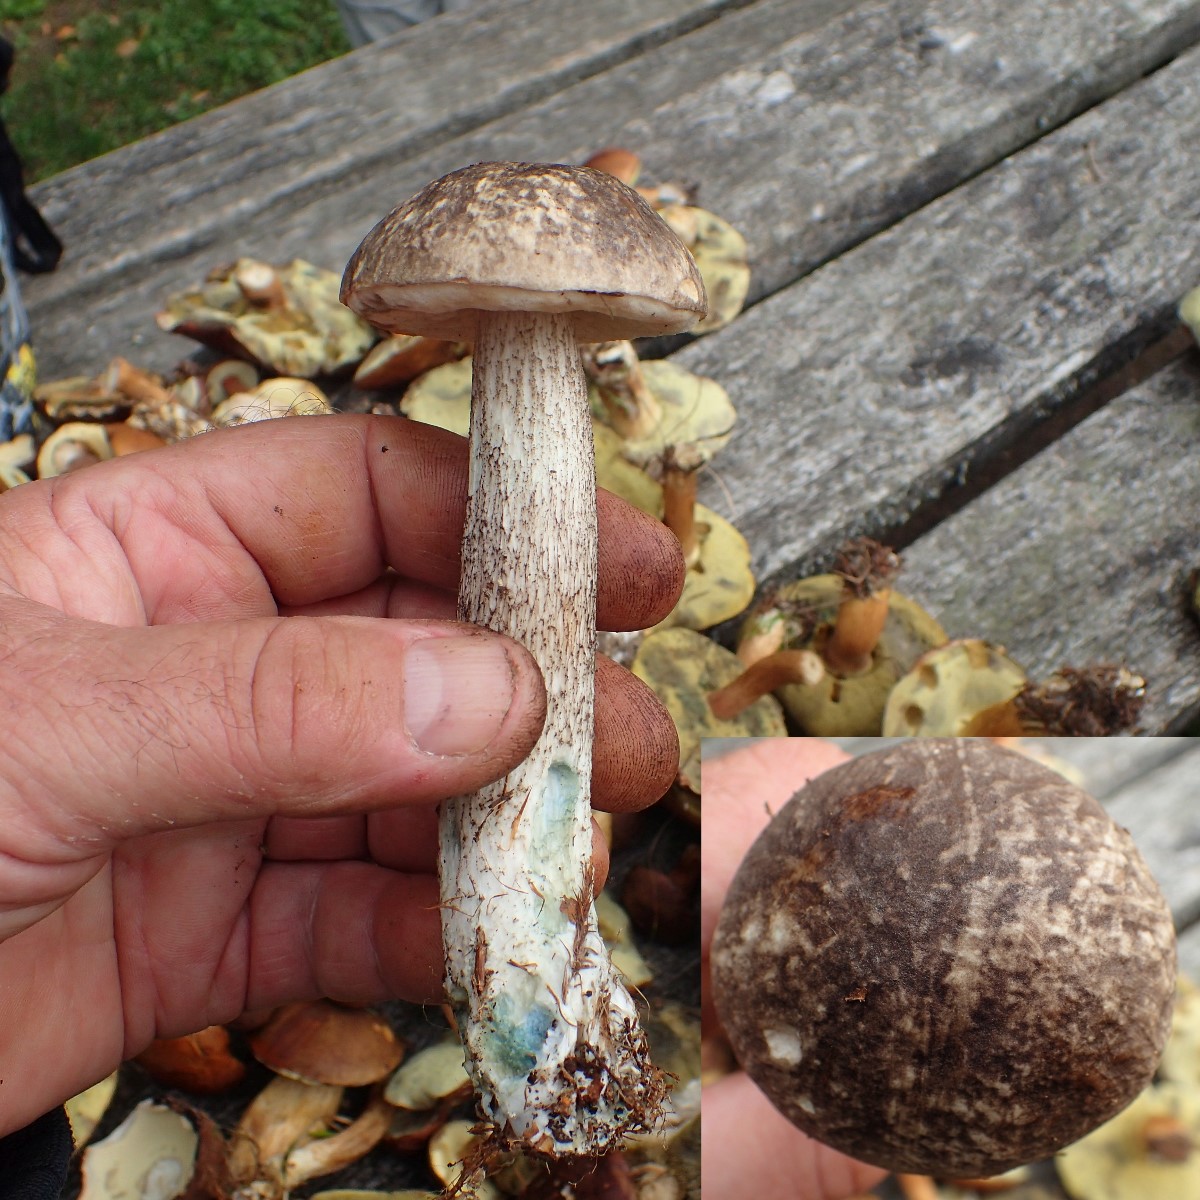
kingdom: Fungi
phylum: Basidiomycota
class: Agaricomycetes
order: Boletales
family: Boletaceae
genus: Leccinum
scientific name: Leccinum variicolor
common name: flammet skælrørhat
